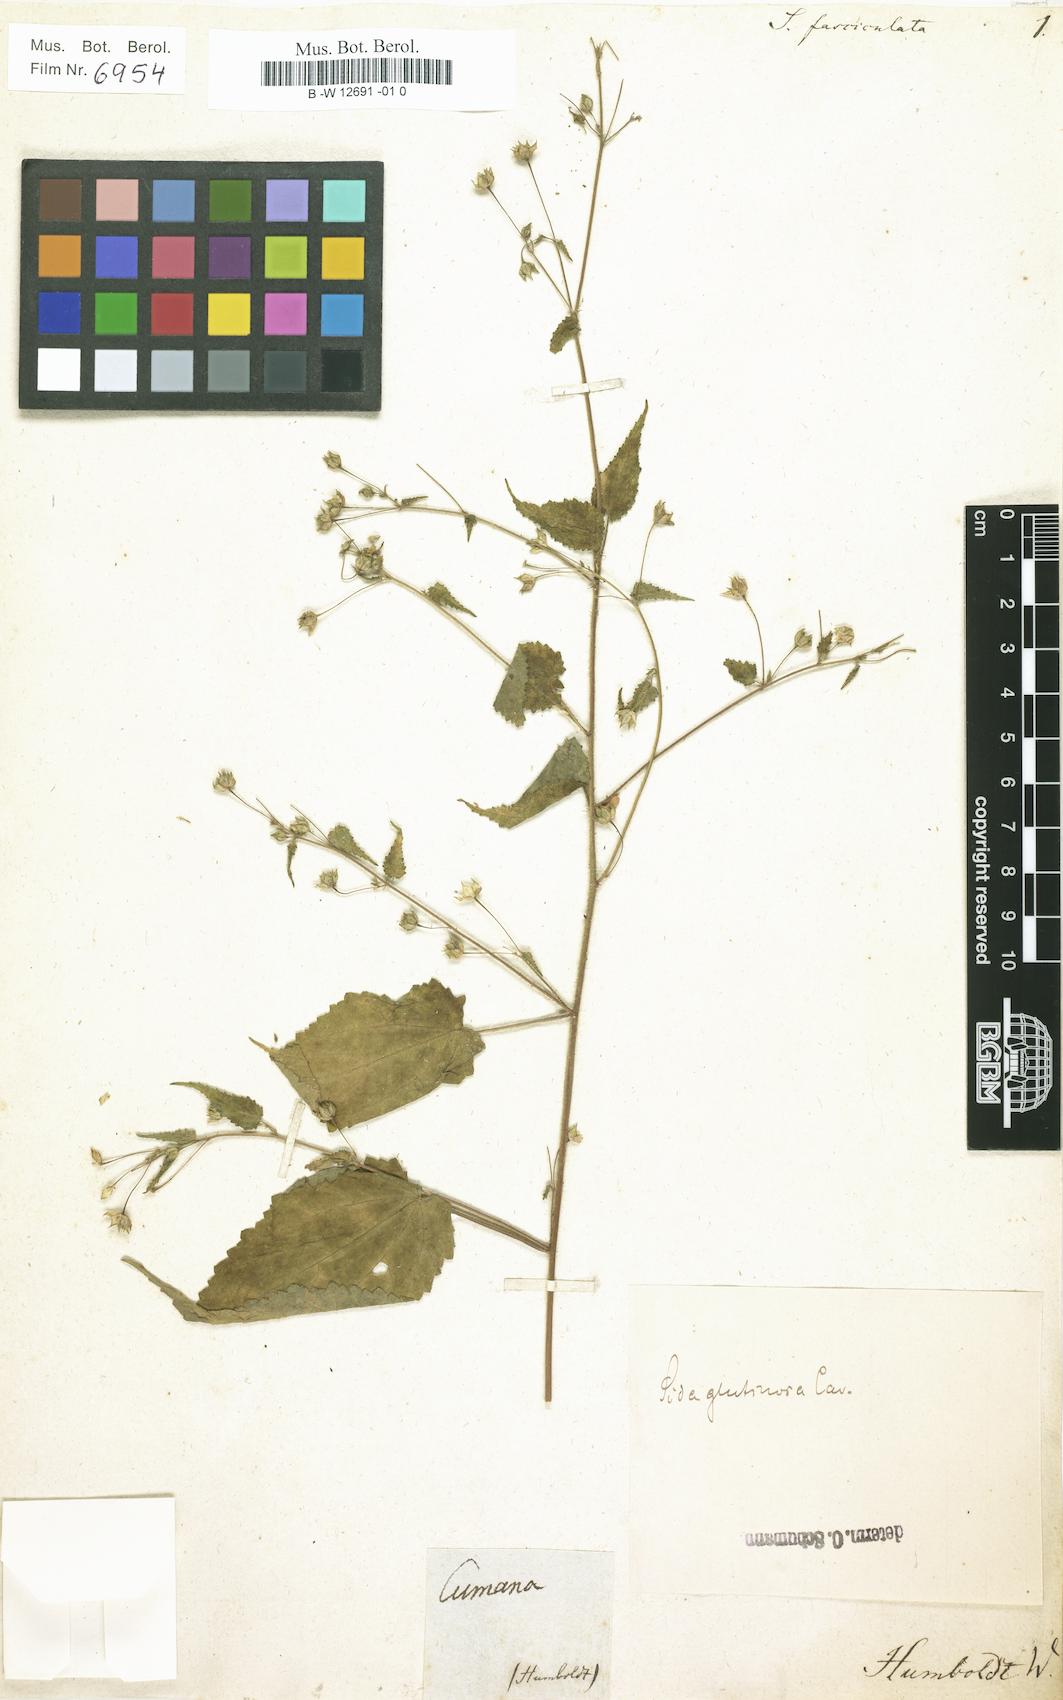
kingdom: Plantae
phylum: Tracheophyta
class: Magnoliopsida
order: Malvales
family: Malvaceae
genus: Sida
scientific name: Sida glabra
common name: Smooth fanpetals
